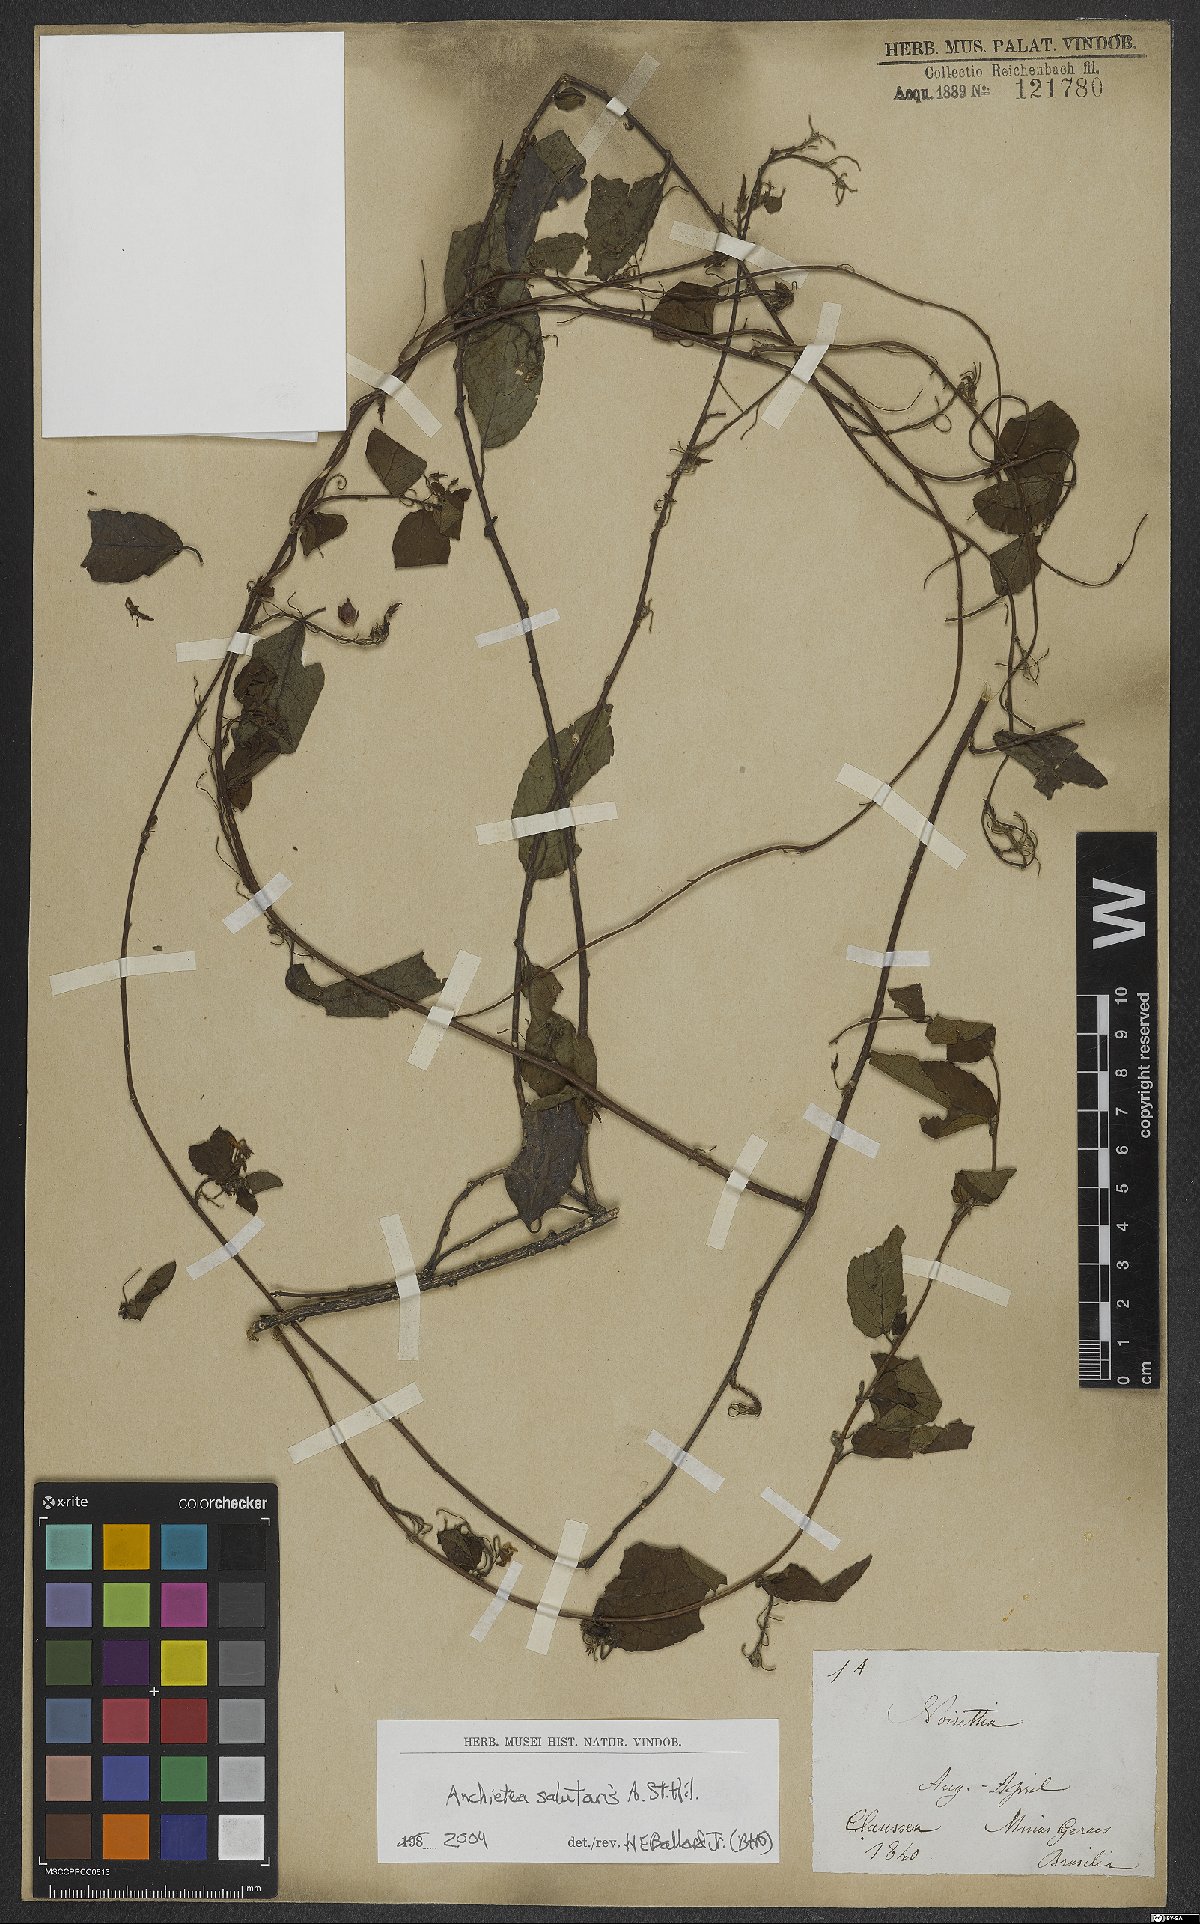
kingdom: Plantae
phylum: Tracheophyta
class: Magnoliopsida
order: Malpighiales
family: Violaceae
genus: Anchietea
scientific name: Anchietea pyrifolia
